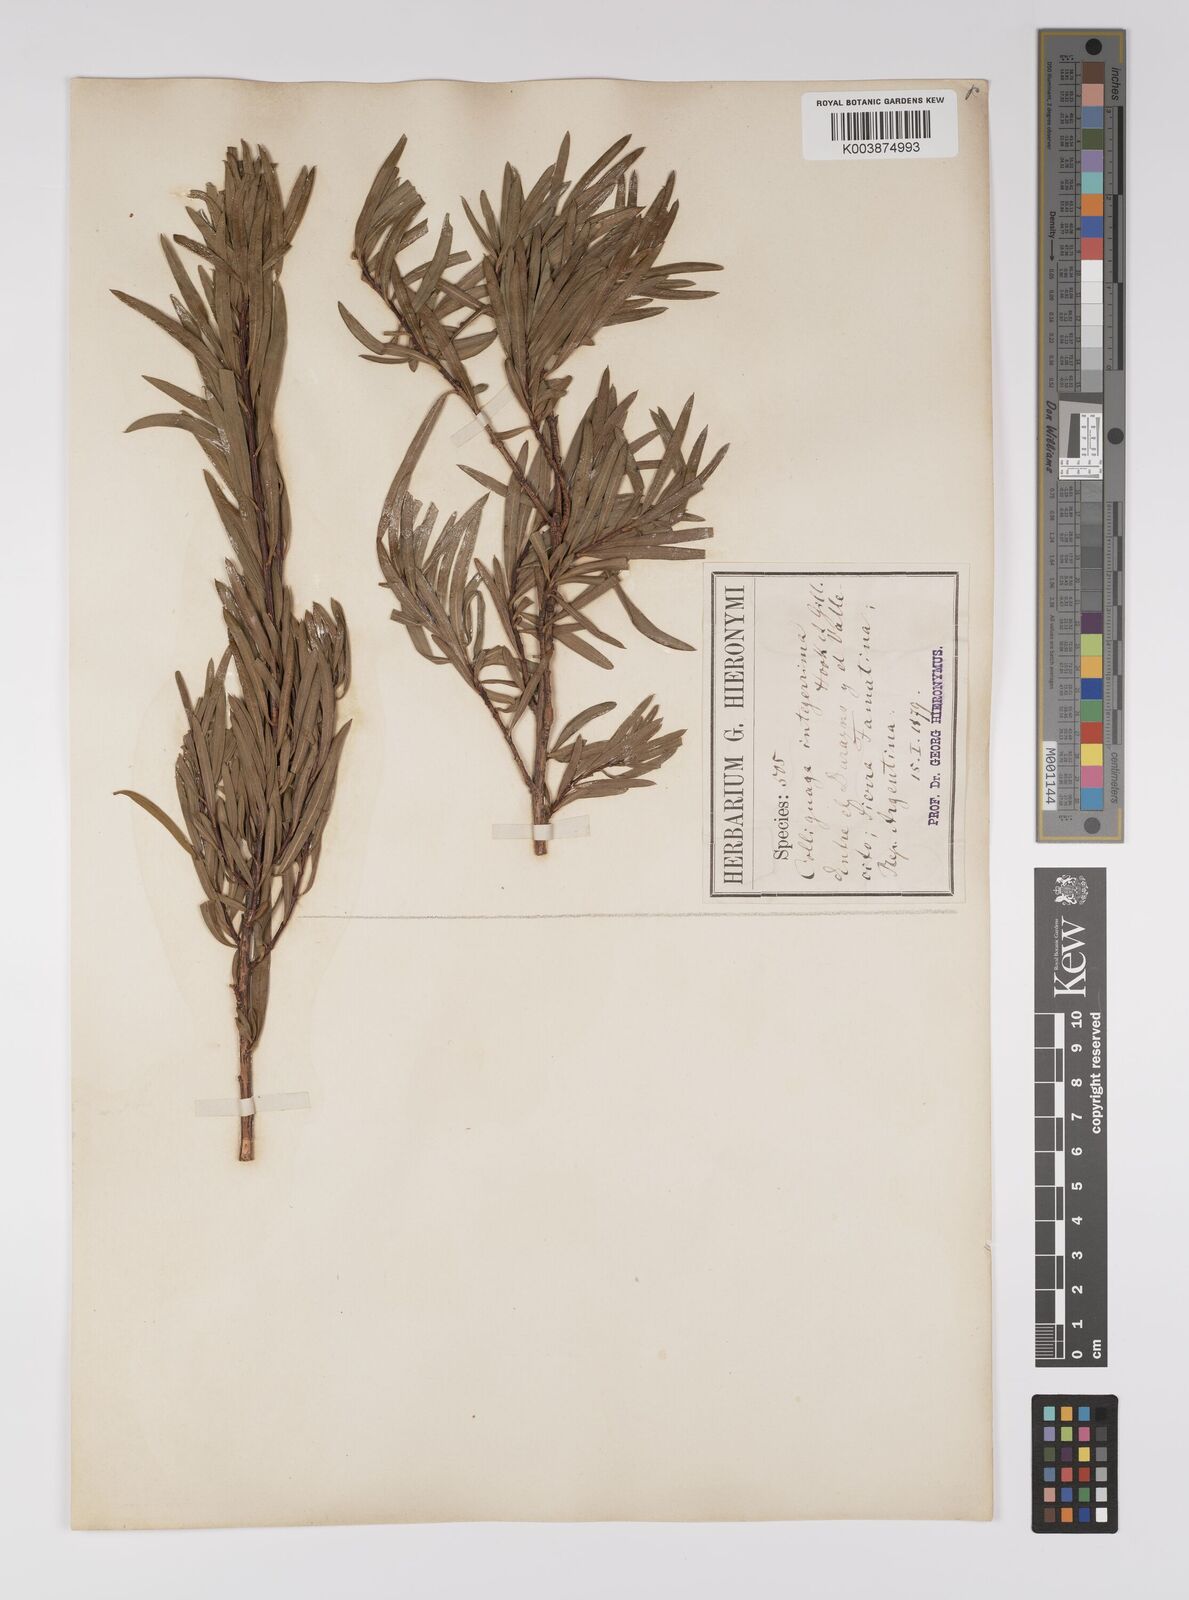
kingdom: Plantae
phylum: Tracheophyta
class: Magnoliopsida
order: Malpighiales
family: Euphorbiaceae
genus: Colliguaja
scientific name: Colliguaja integerrima
